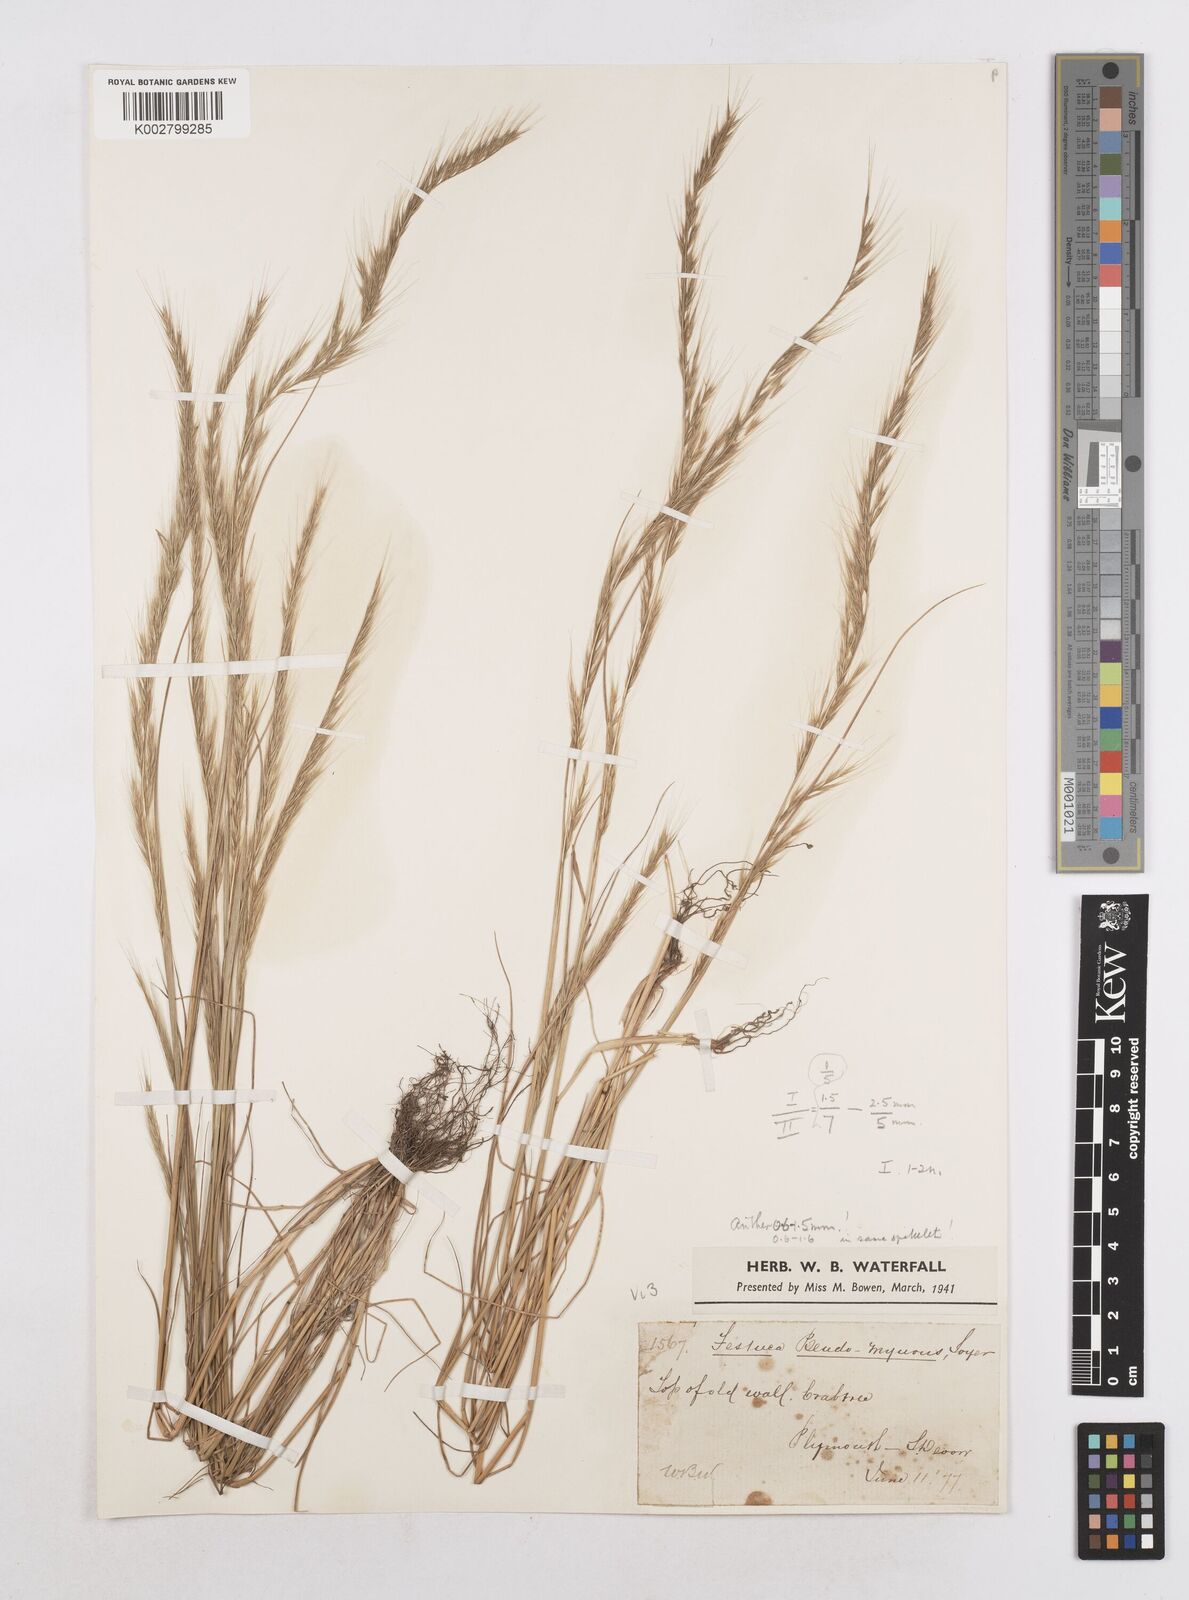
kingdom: Plantae
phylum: Tracheophyta
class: Liliopsida
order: Poales
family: Poaceae
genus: Festuca
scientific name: Festuca myuros
